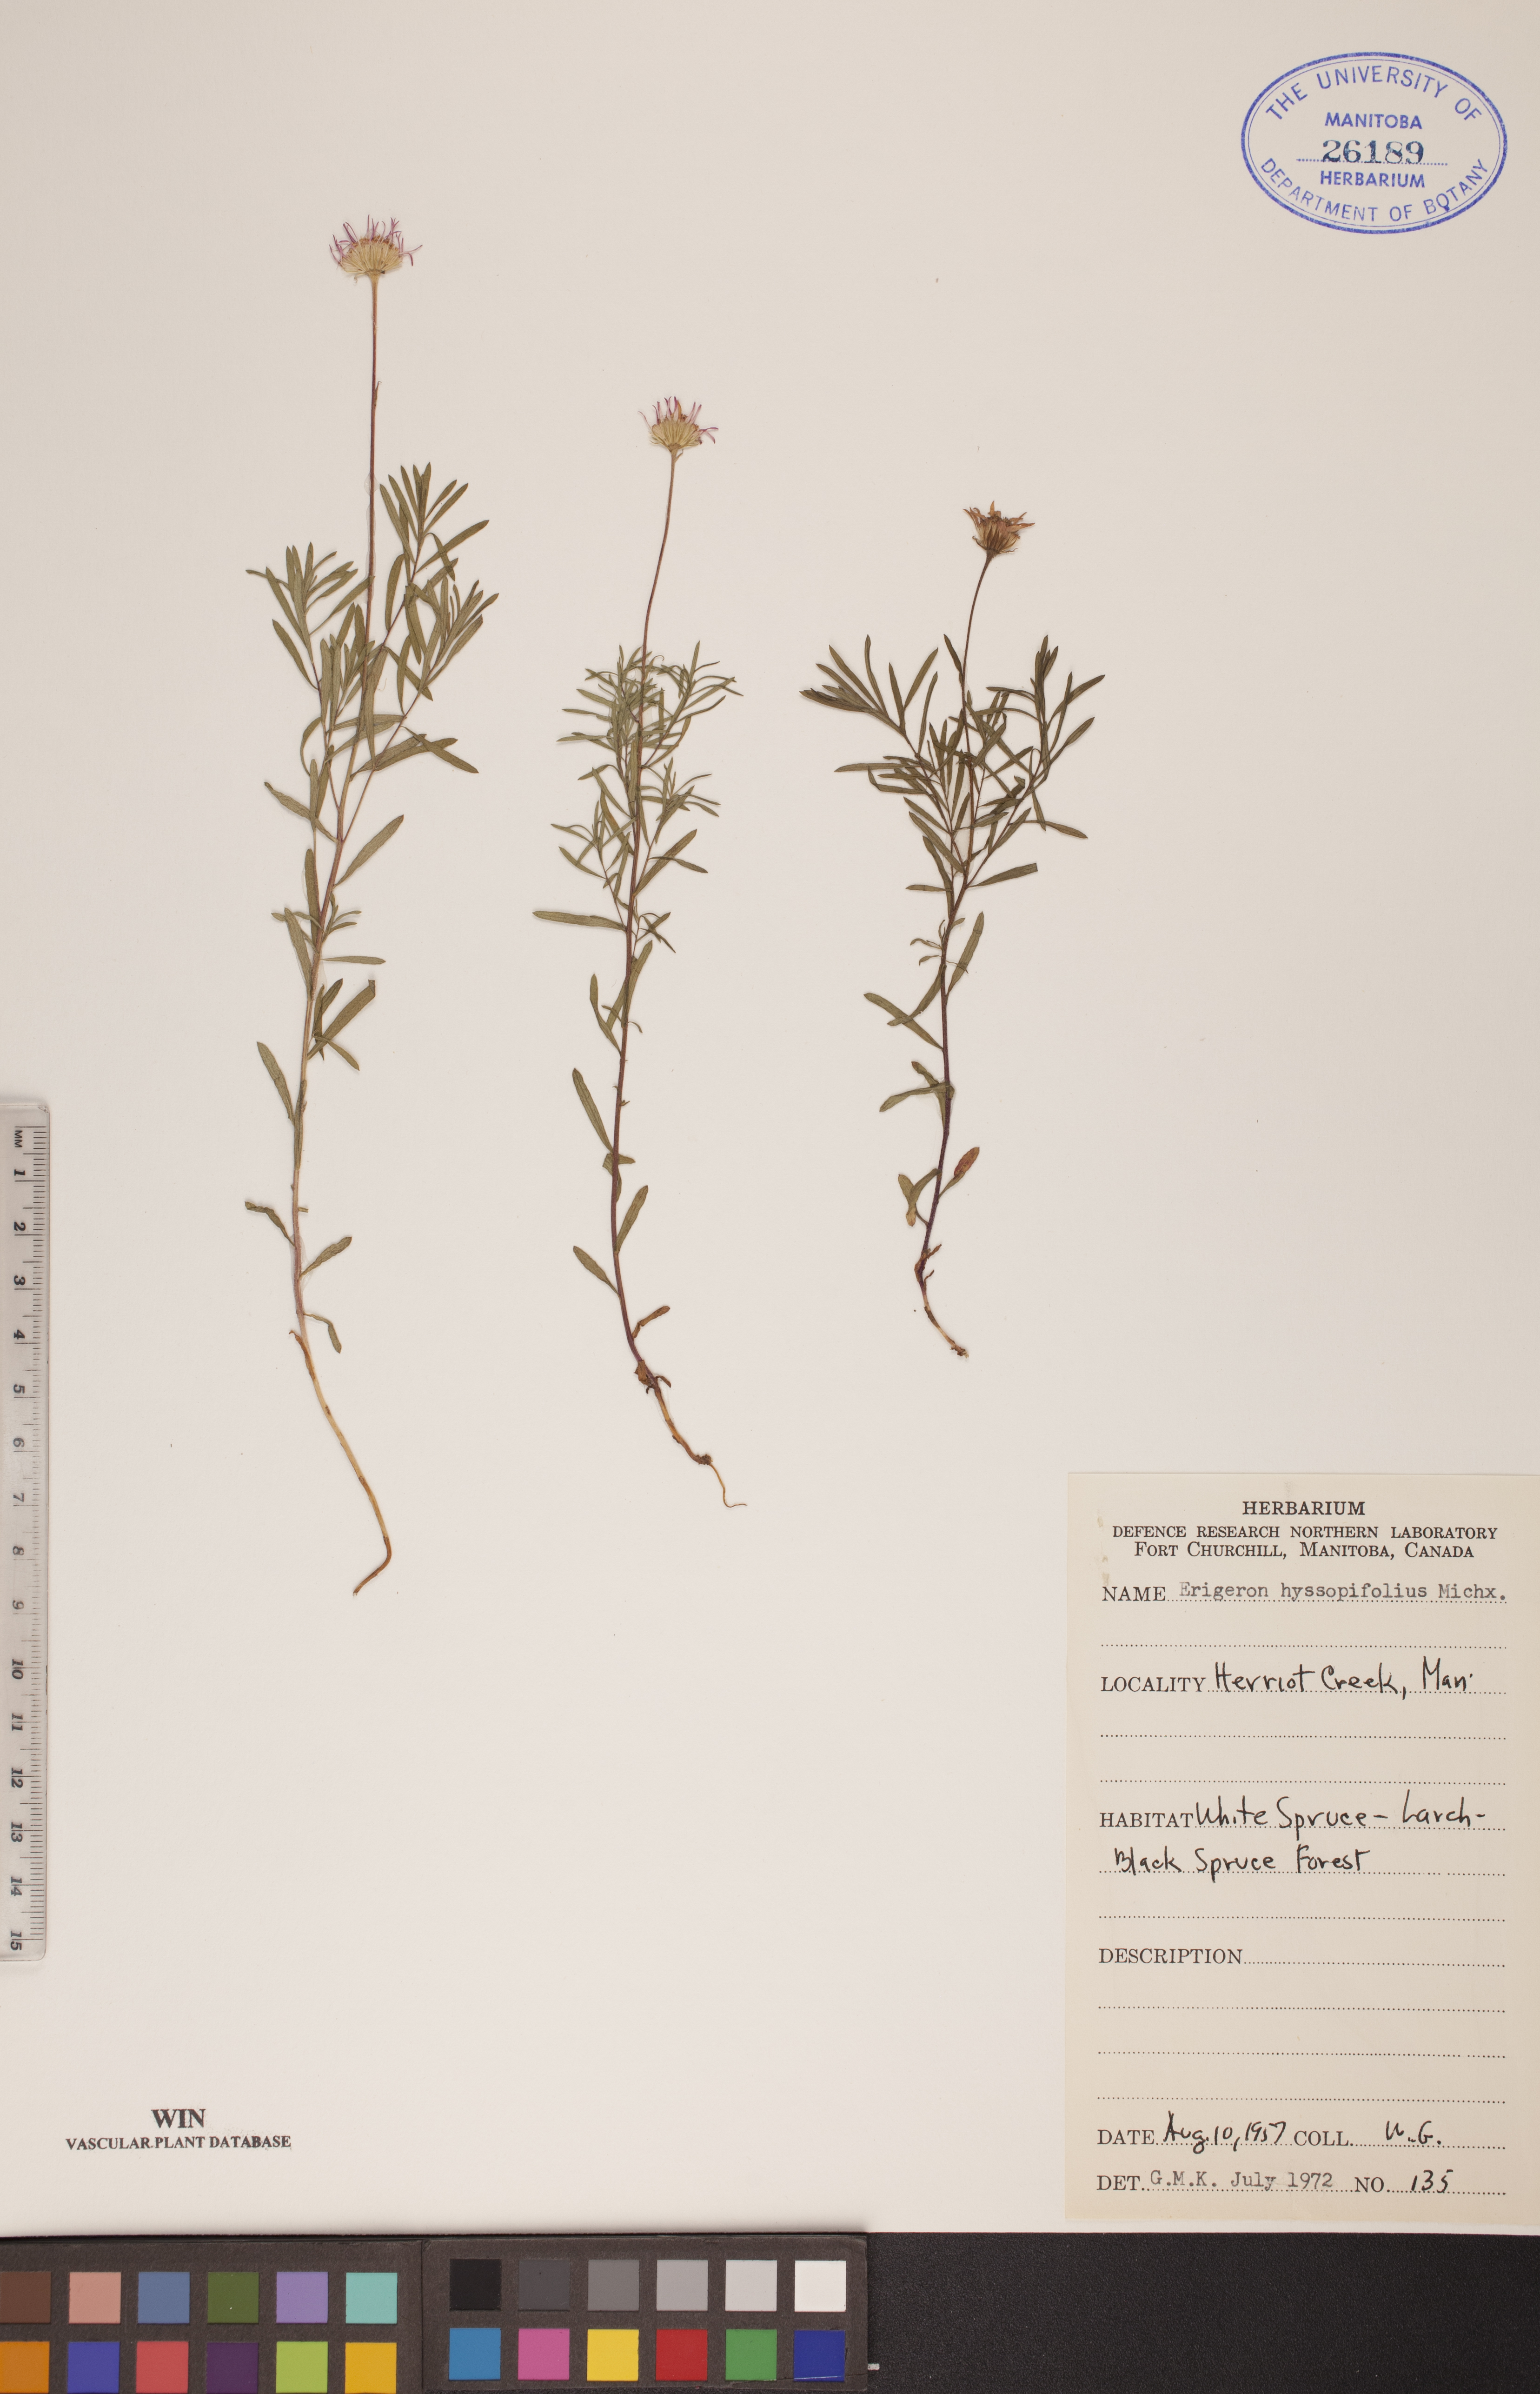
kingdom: Plantae
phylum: Tracheophyta
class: Magnoliopsida
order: Asterales
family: Asteraceae
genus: Erigeron
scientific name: Erigeron hyssopifolius
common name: Daisy fleabane
